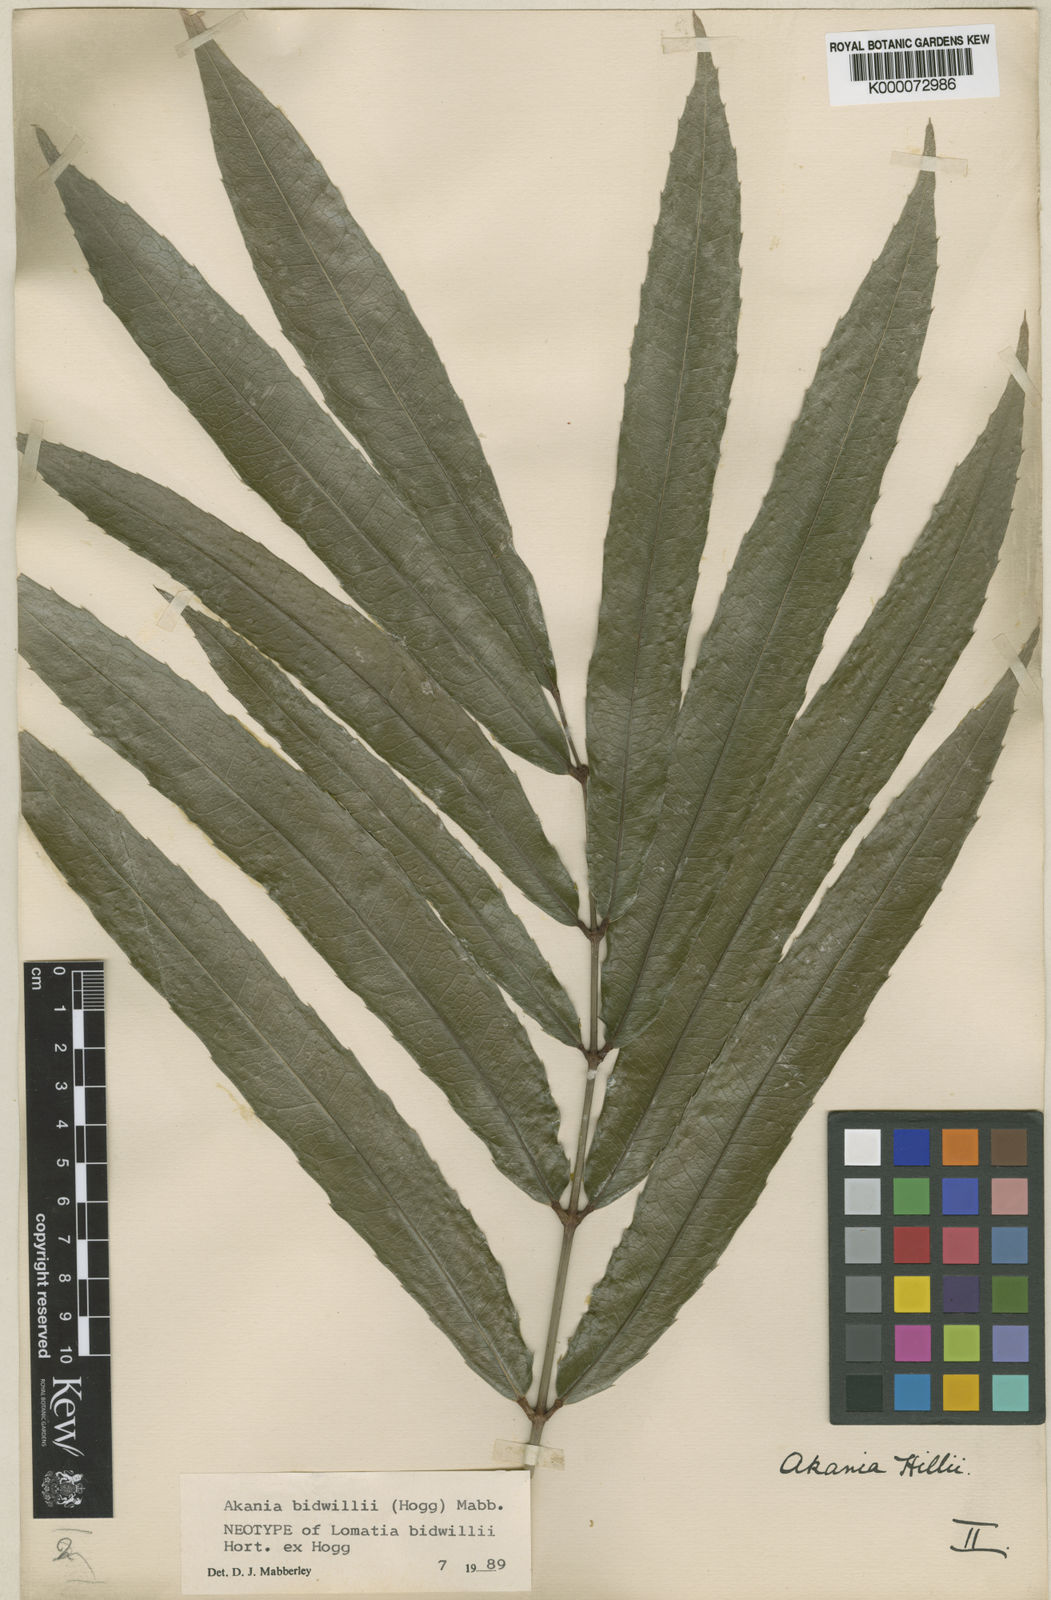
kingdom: Plantae
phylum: Tracheophyta
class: Magnoliopsida
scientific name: Magnoliopsida
